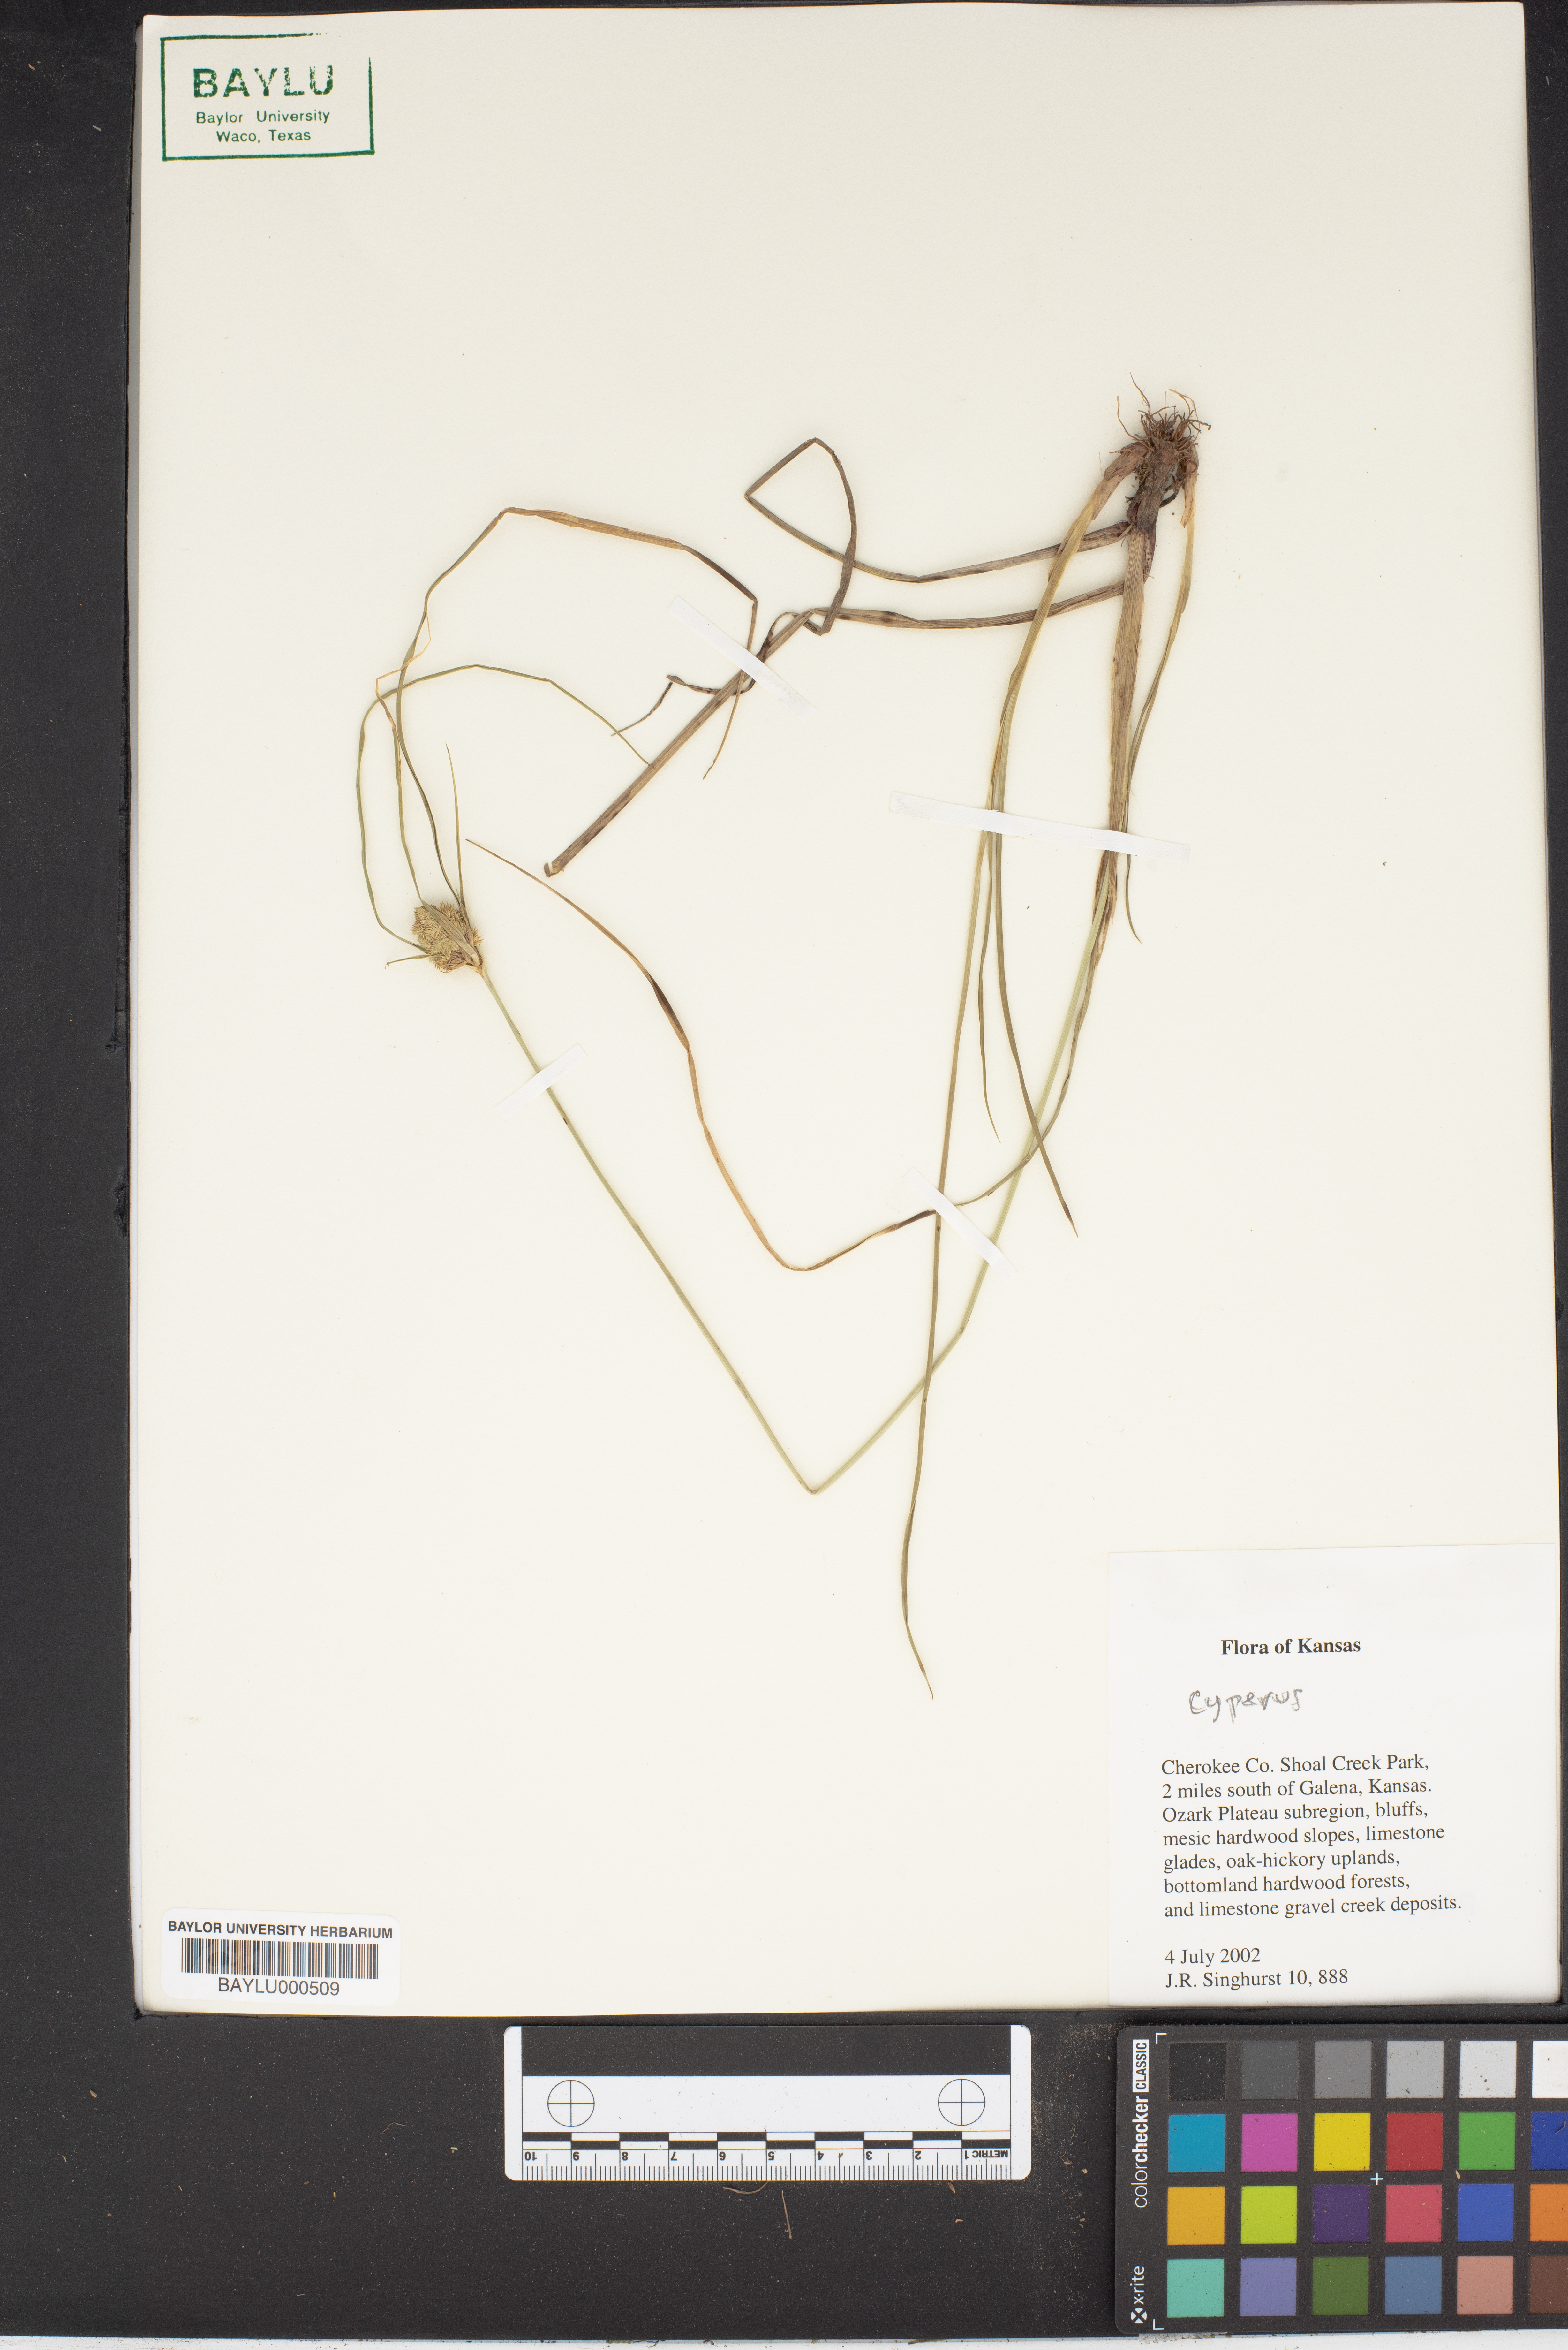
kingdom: Plantae
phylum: Tracheophyta
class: Liliopsida
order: Poales
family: Cyperaceae
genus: Cyperus
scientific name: Cyperus
